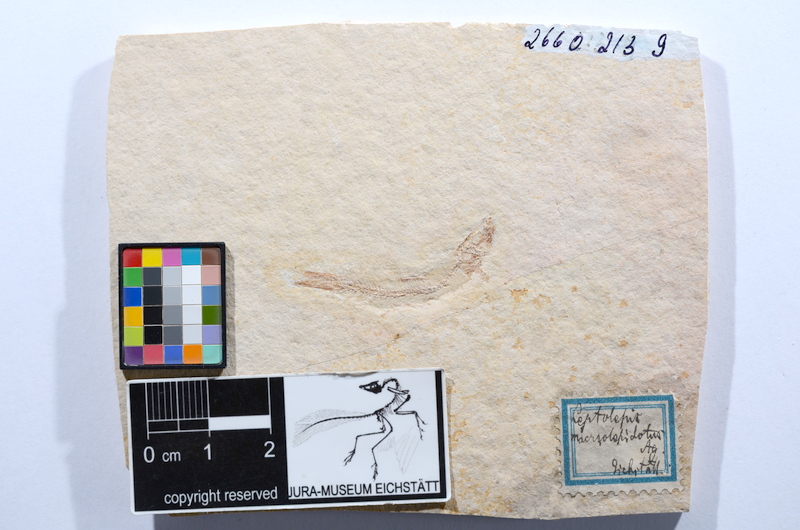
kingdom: Animalia
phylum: Chordata
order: Salmoniformes
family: Orthogonikleithridae
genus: Leptolepides
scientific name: Leptolepides sprattiformis
